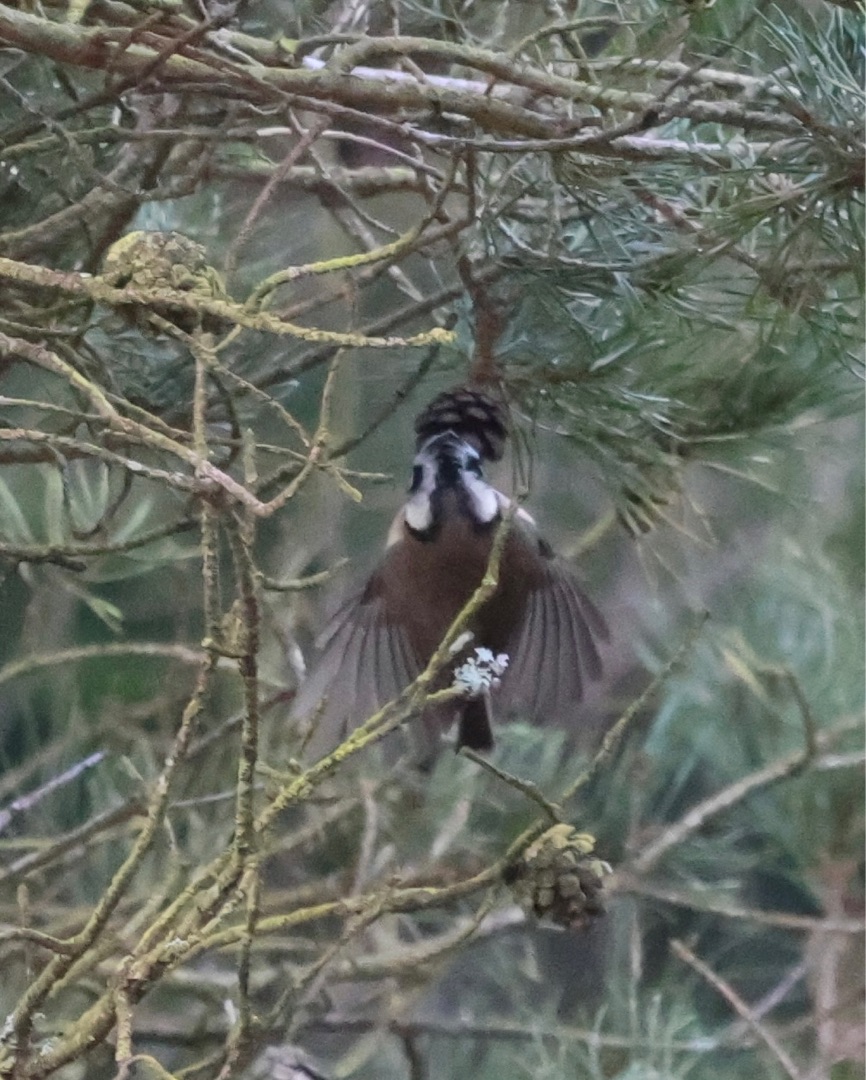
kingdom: Animalia
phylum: Chordata
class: Aves
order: Passeriformes
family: Paridae
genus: Lophophanes
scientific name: Lophophanes cristatus
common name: Topmejse
